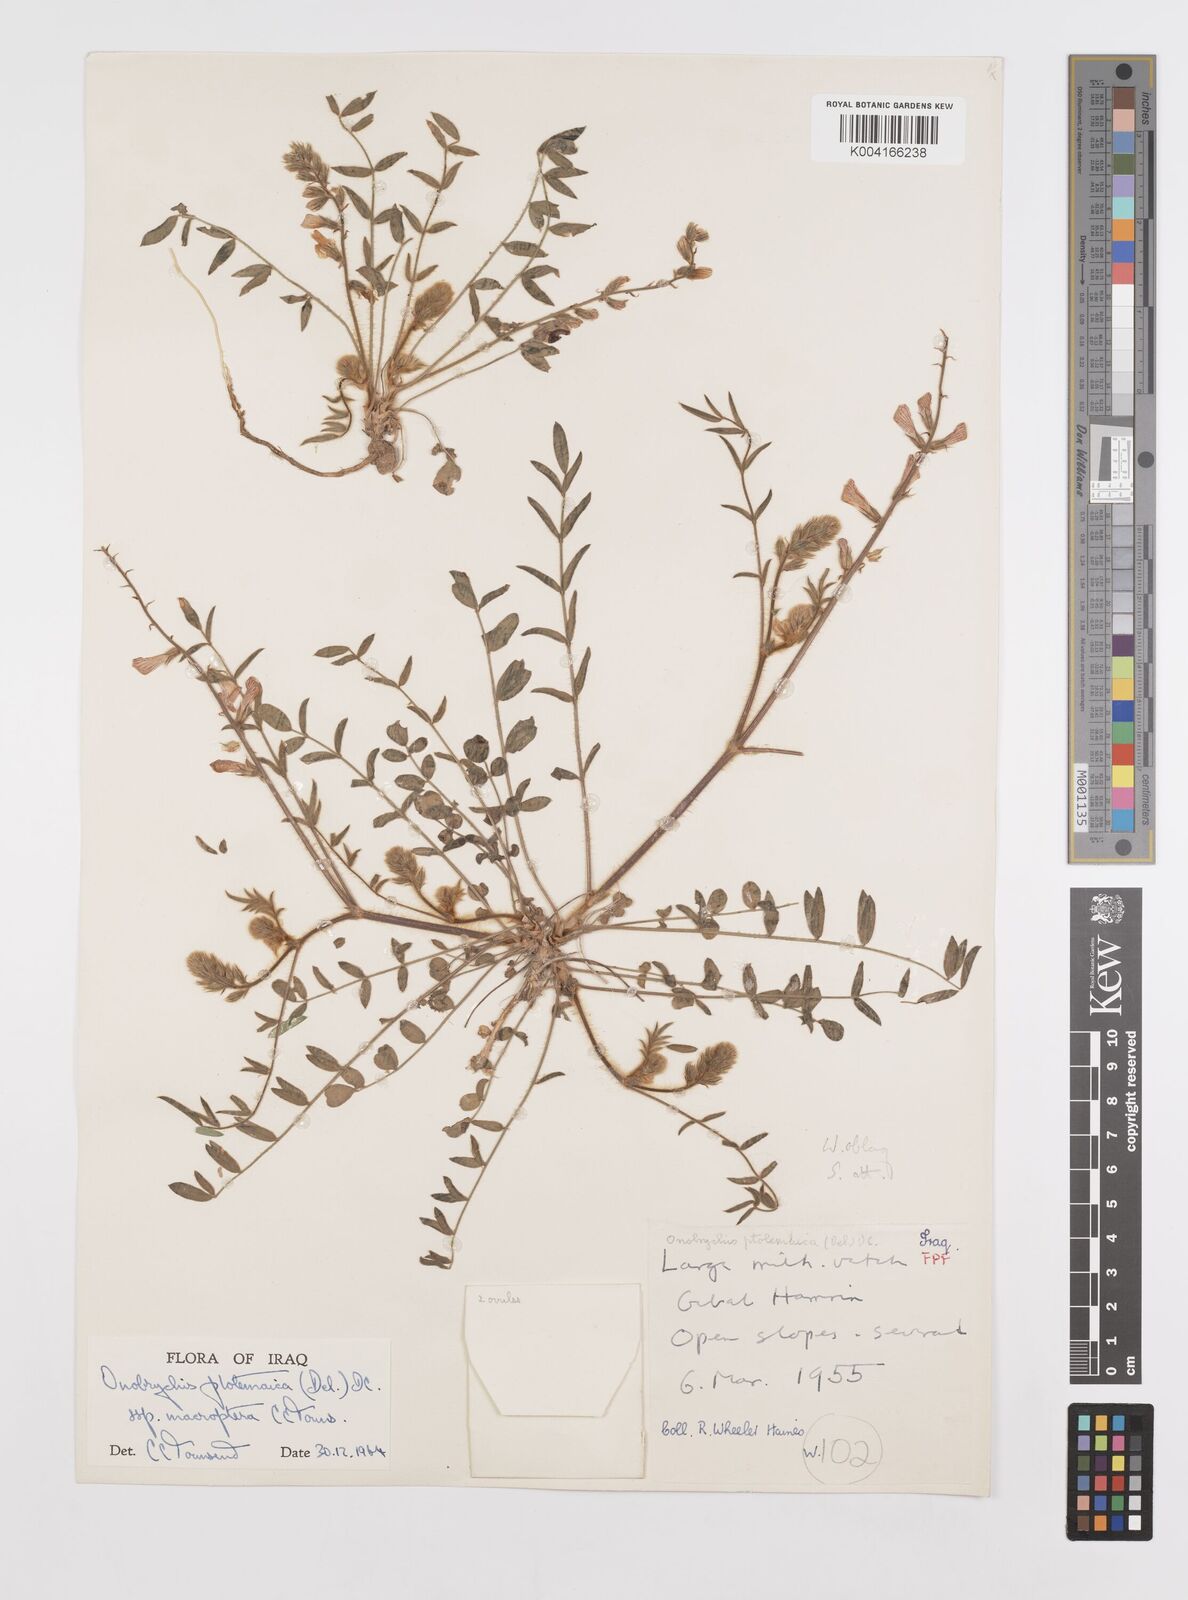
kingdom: Plantae
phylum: Tracheophyta
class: Magnoliopsida
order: Fabales
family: Fabaceae
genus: Onobrychis
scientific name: Onobrychis ptolemaica
